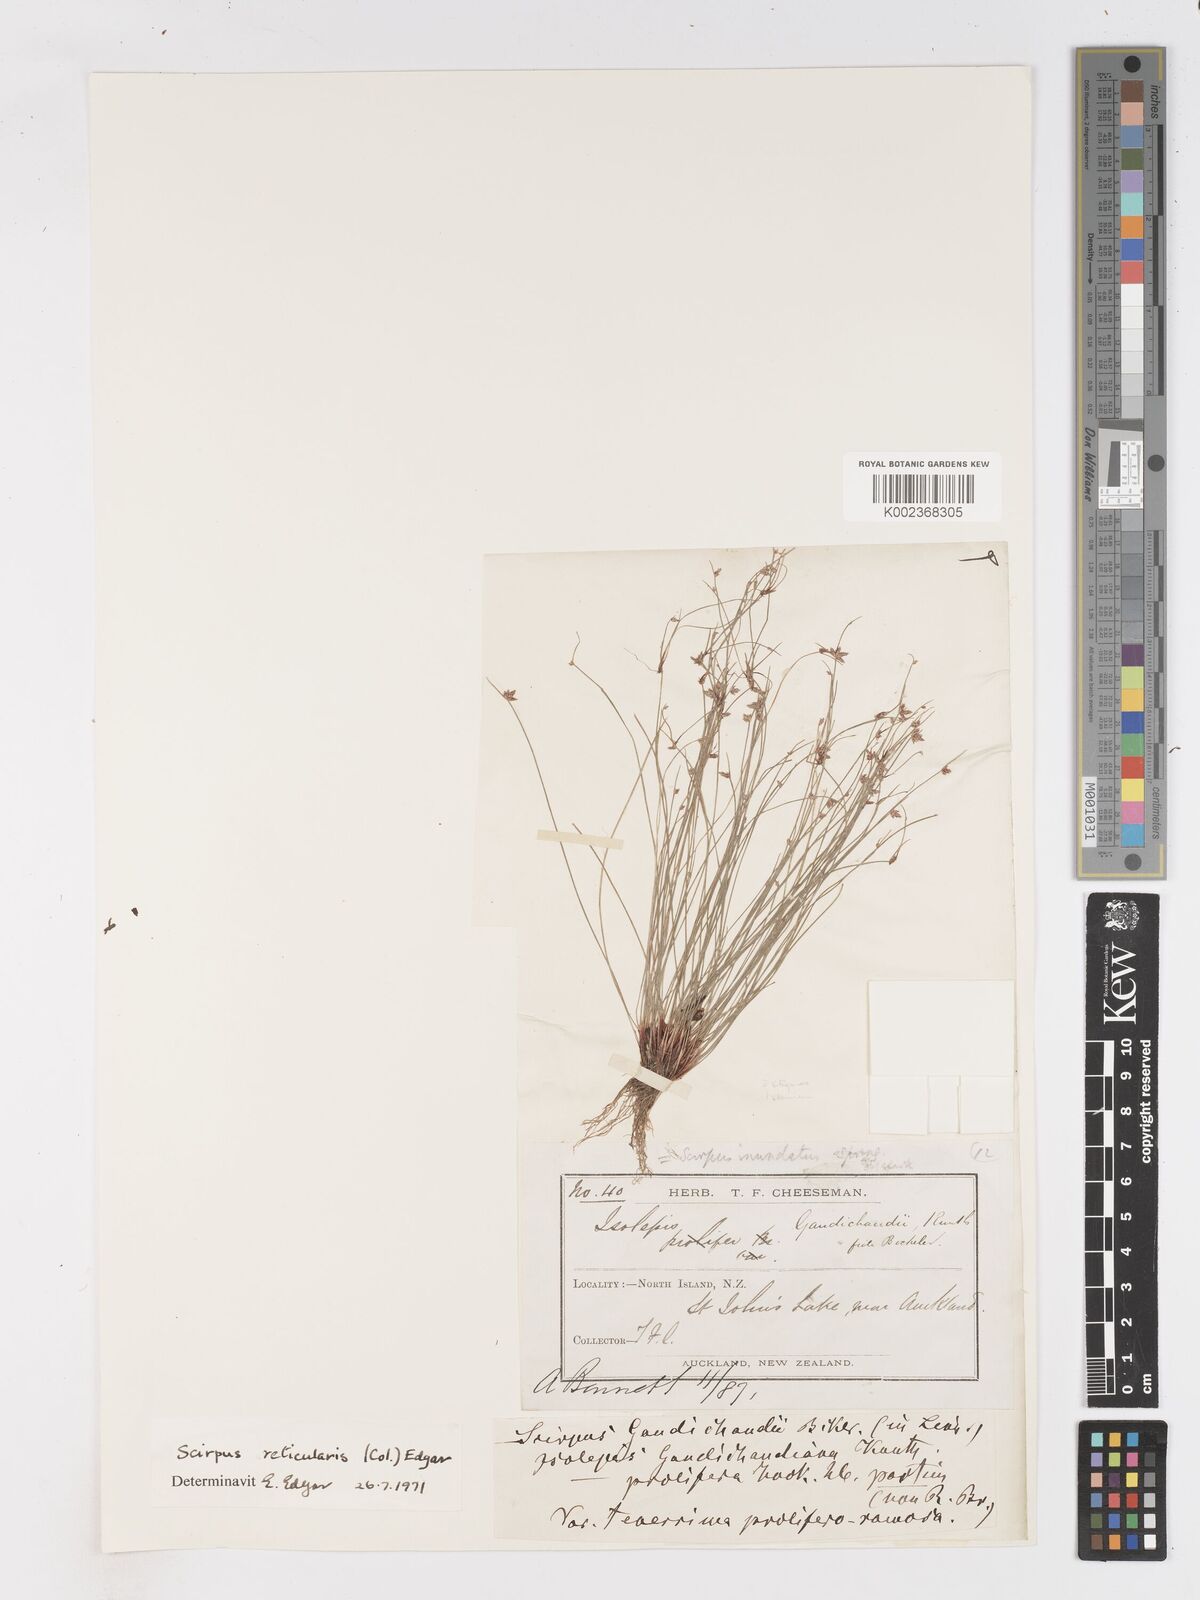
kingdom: Plantae
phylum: Tracheophyta
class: Liliopsida
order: Poales
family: Cyperaceae
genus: Isolepis
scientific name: Isolepis reticularis
